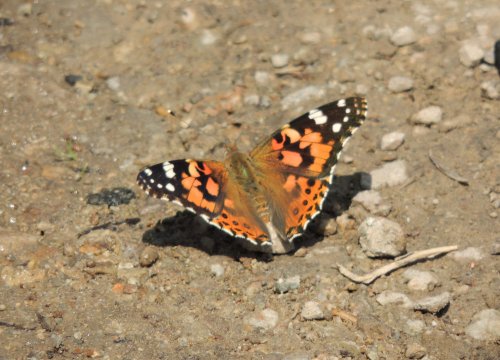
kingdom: Animalia
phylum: Arthropoda
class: Insecta
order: Lepidoptera
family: Nymphalidae
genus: Vanessa
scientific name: Vanessa cardui
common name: Painted Lady
